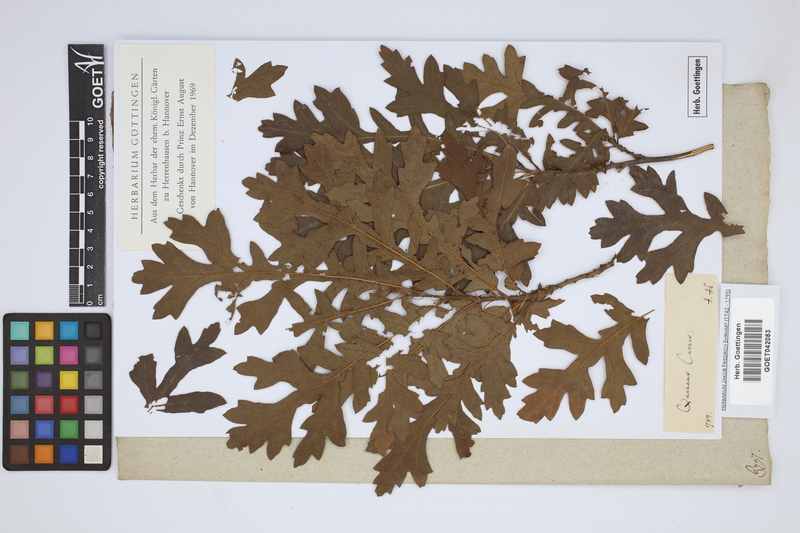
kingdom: Plantae
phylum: Tracheophyta
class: Magnoliopsida
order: Fagales
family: Fagaceae
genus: Quercus
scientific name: Quercus cerris
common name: Turkey oak
